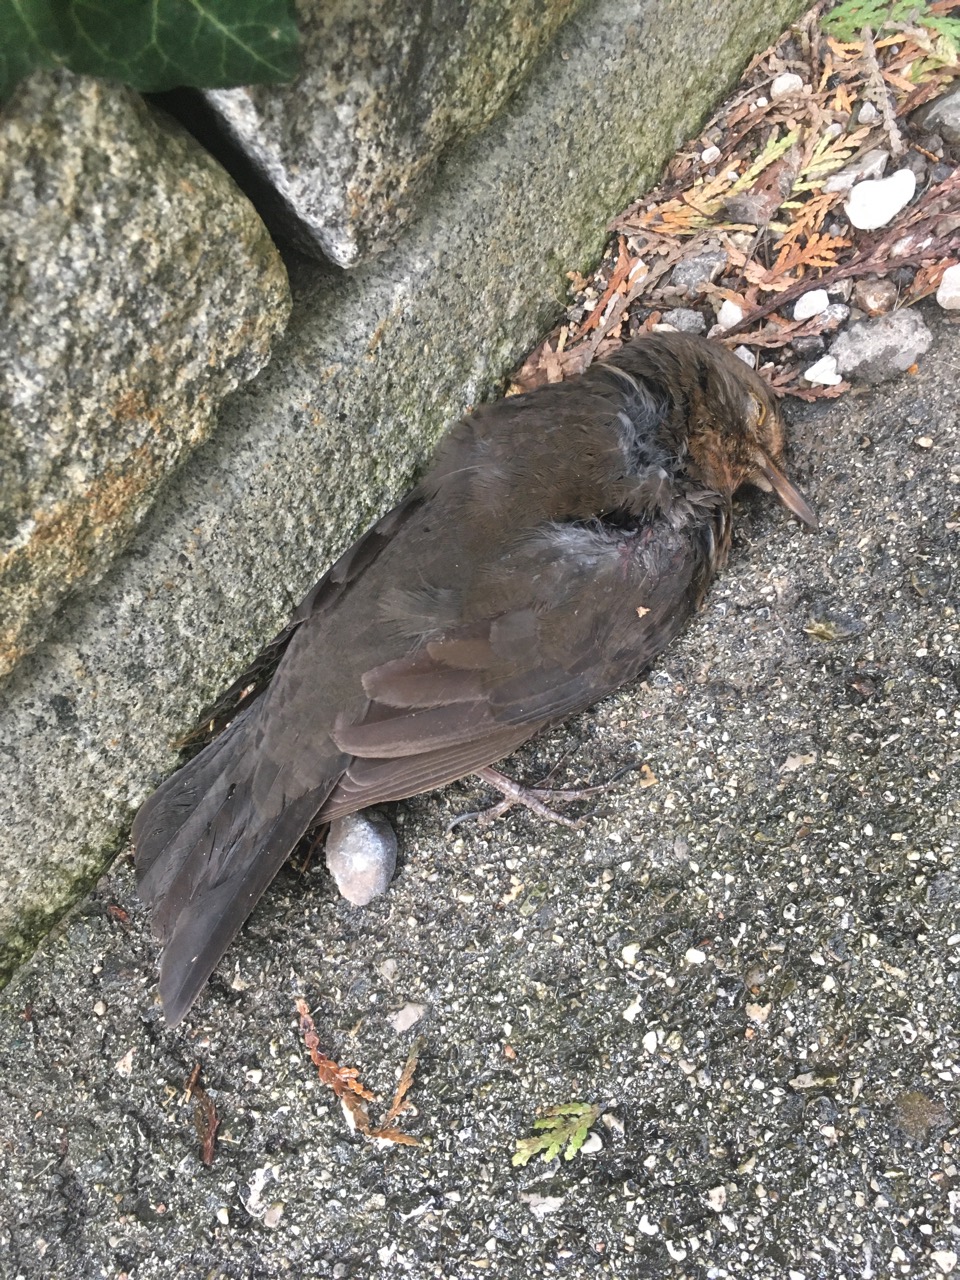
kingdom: Animalia
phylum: Chordata
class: Aves
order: Passeriformes
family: Turdidae
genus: Turdus
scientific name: Turdus merula
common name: Common blackbird
